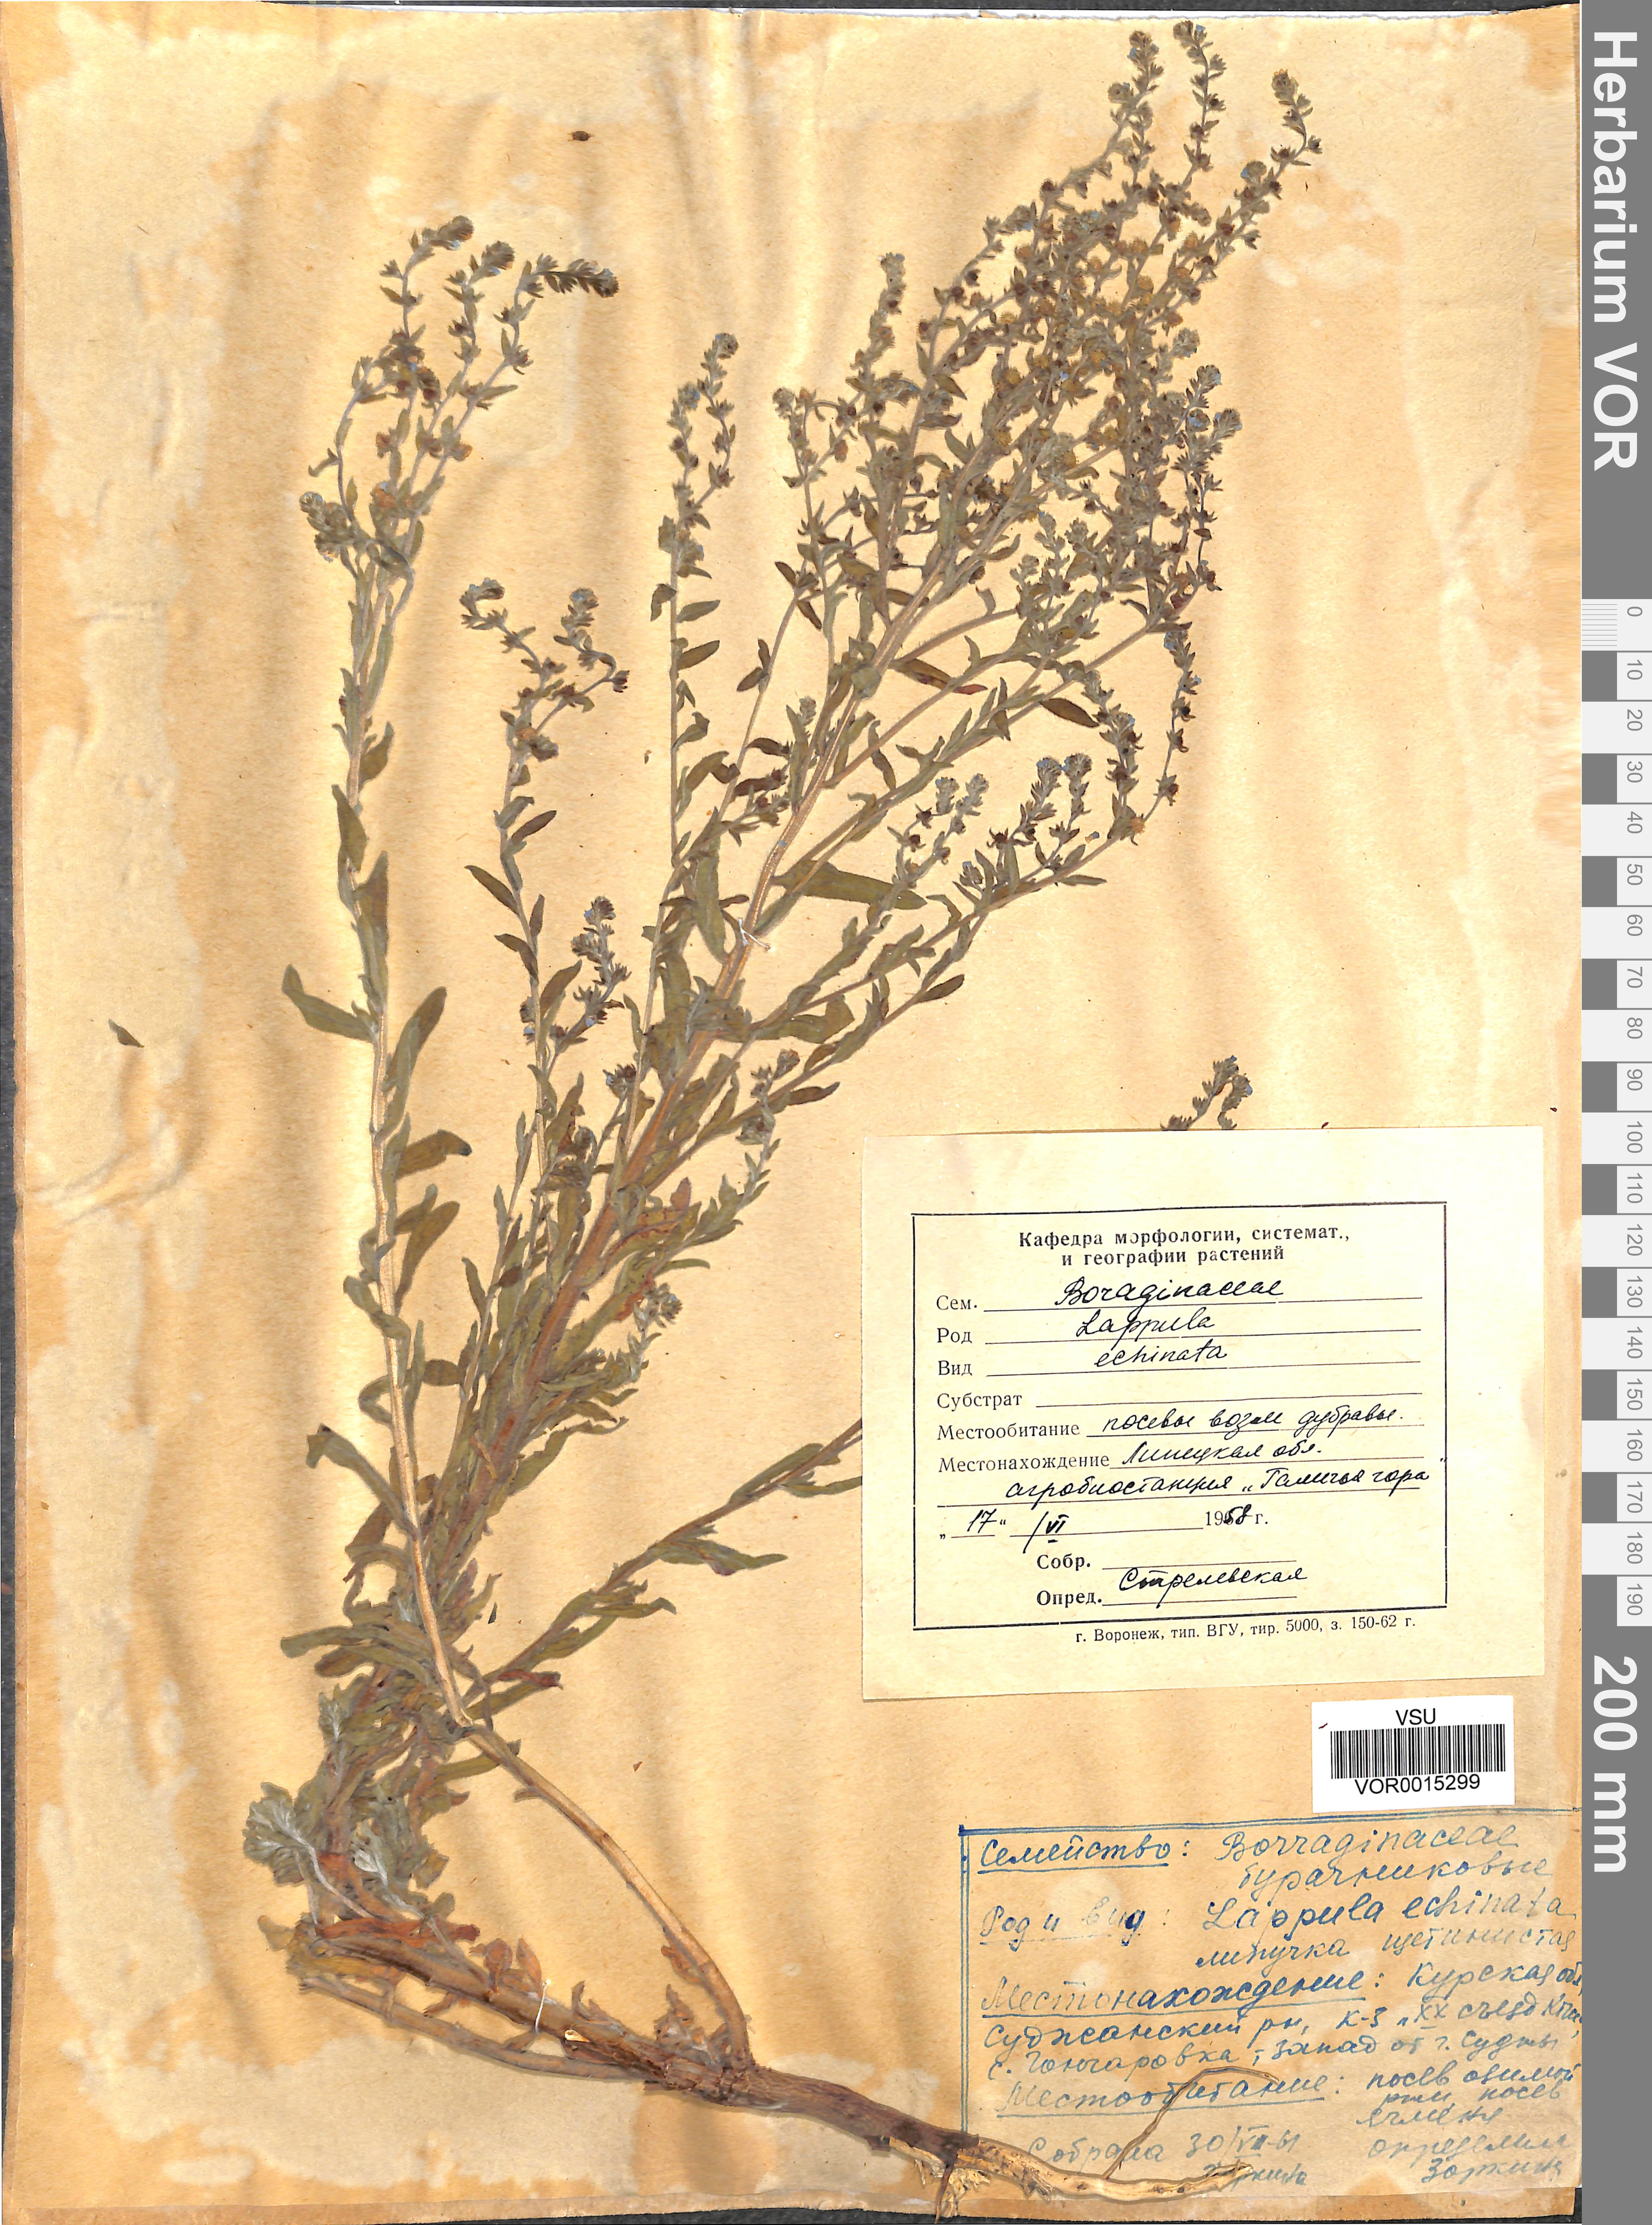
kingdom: Plantae
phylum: Tracheophyta
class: Magnoliopsida
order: Boraginales
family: Boraginaceae
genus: Lappula
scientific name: Lappula squarrosa
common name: European stickseed
